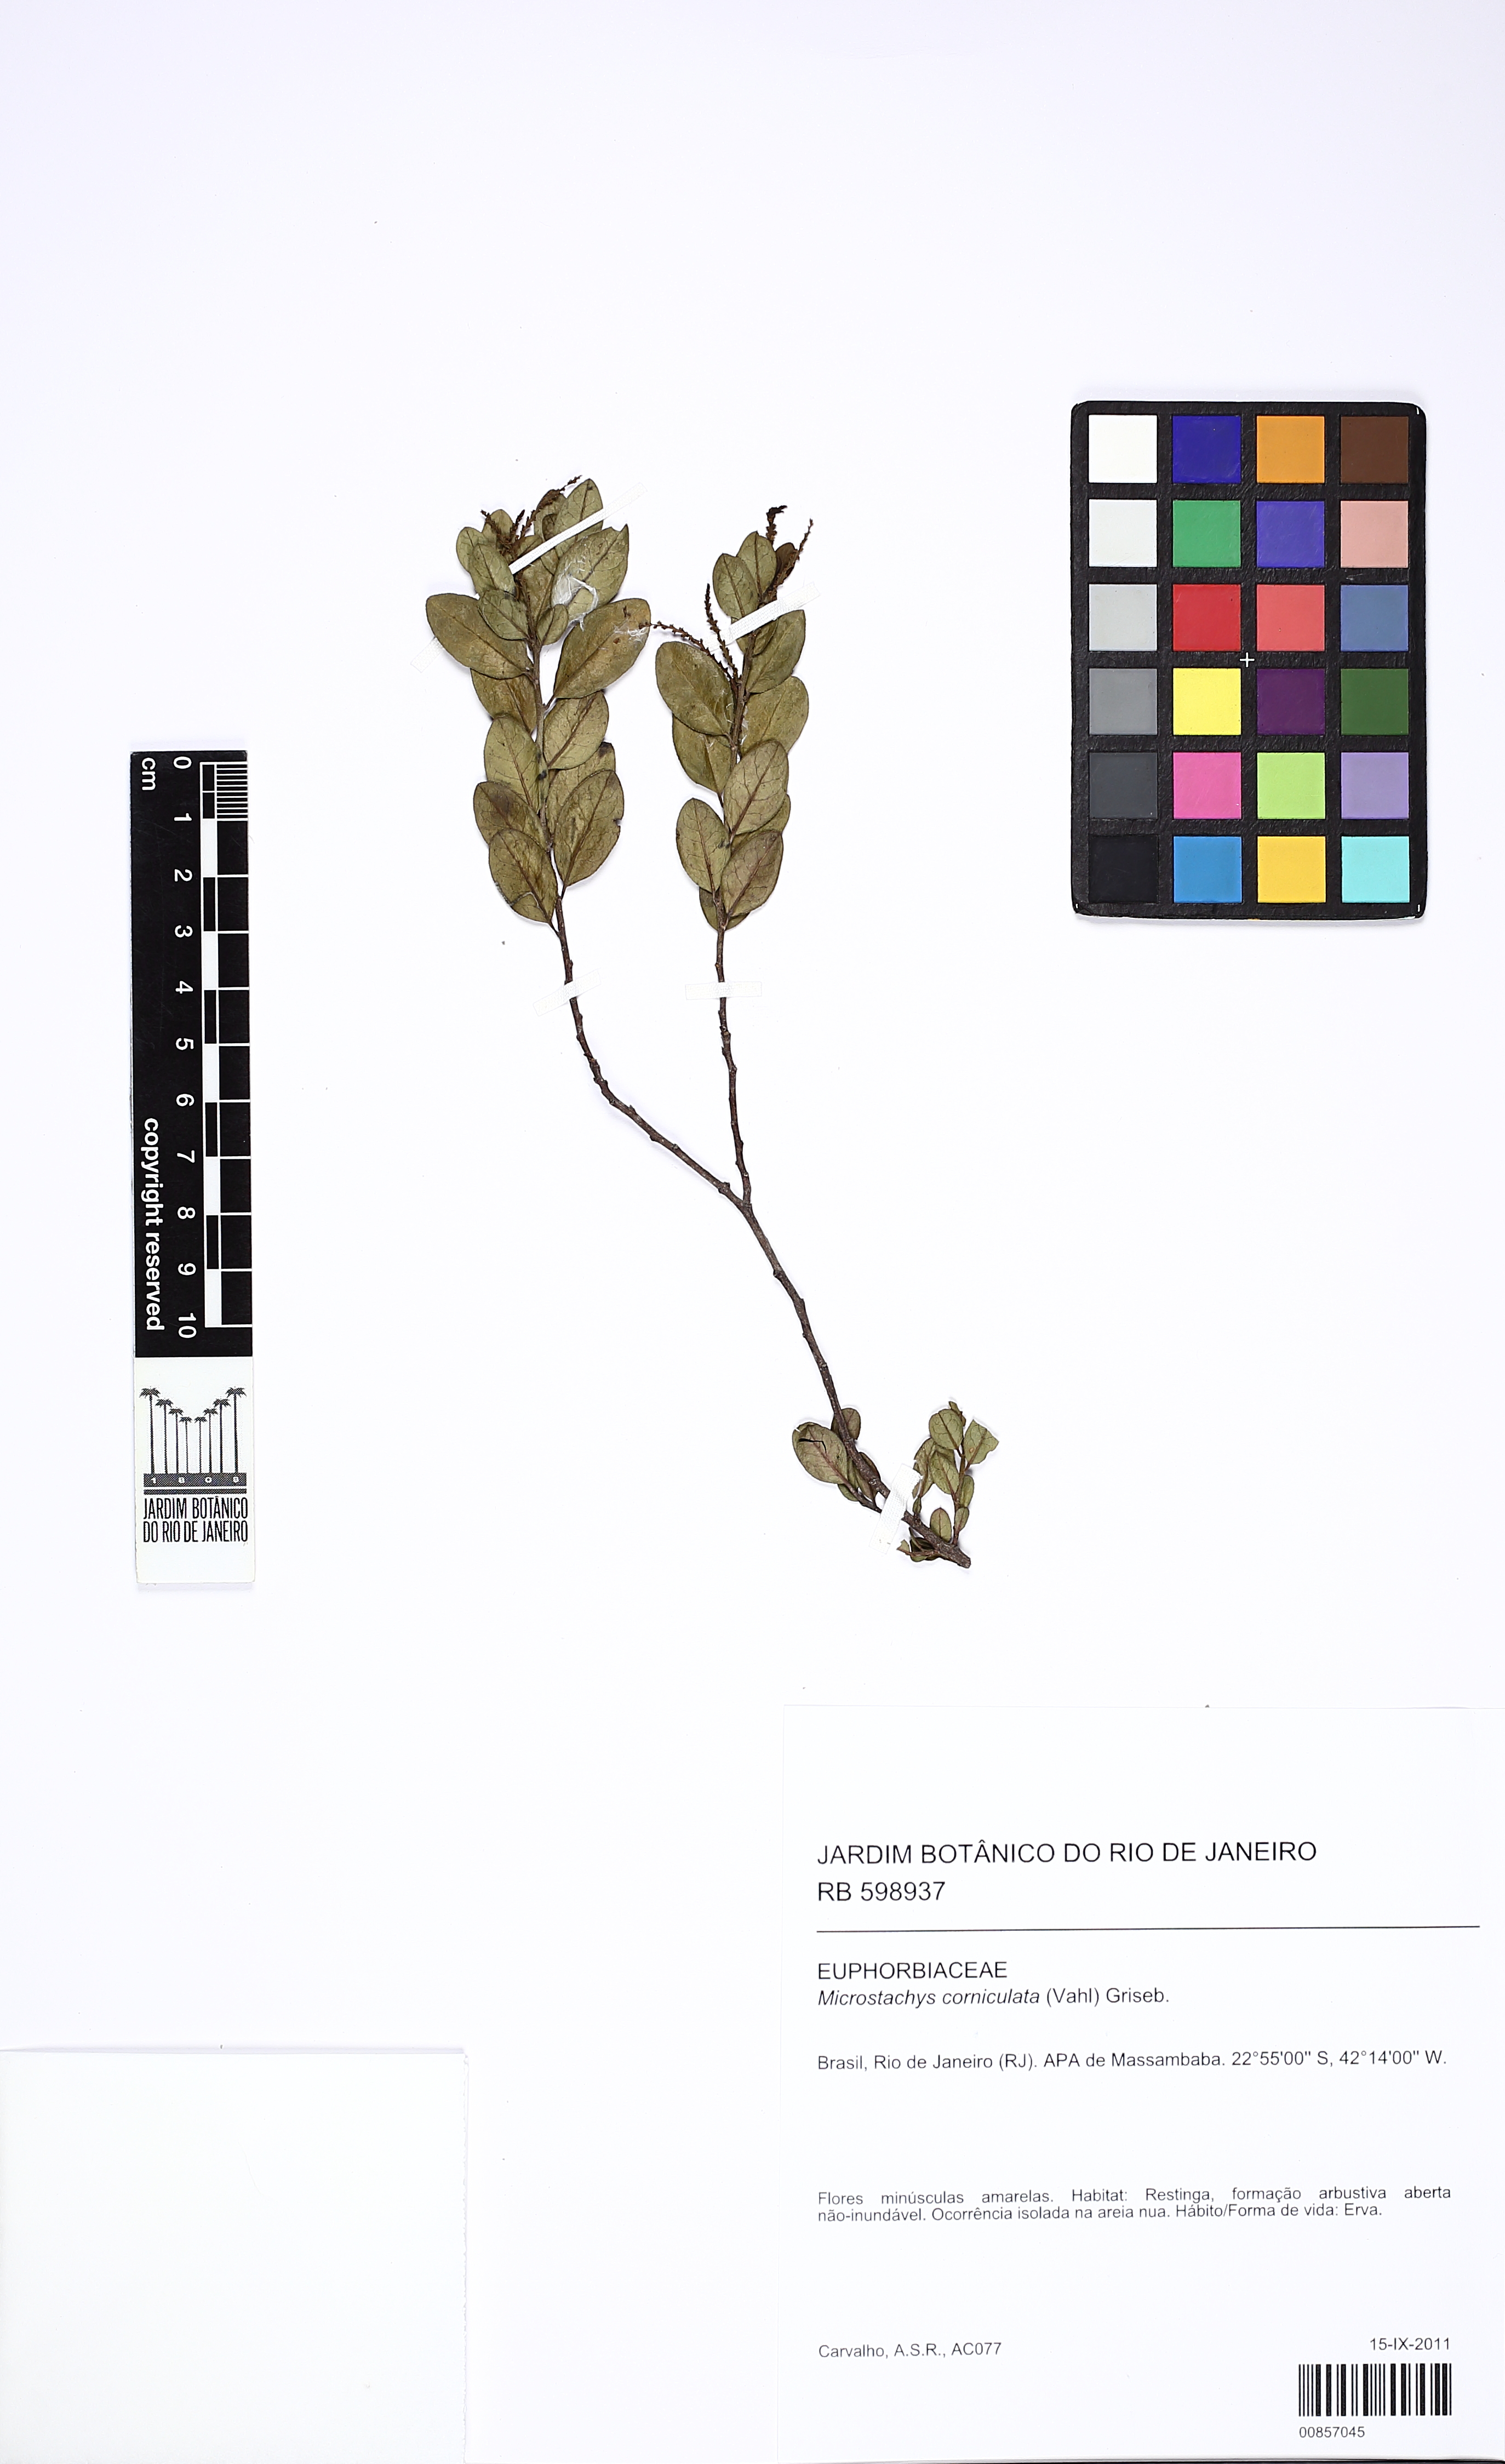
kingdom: Plantae
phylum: Tracheophyta
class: Magnoliopsida
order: Malpighiales
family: Euphorbiaceae
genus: Microstachys
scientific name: Microstachys corniculata
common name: Hato tejas
